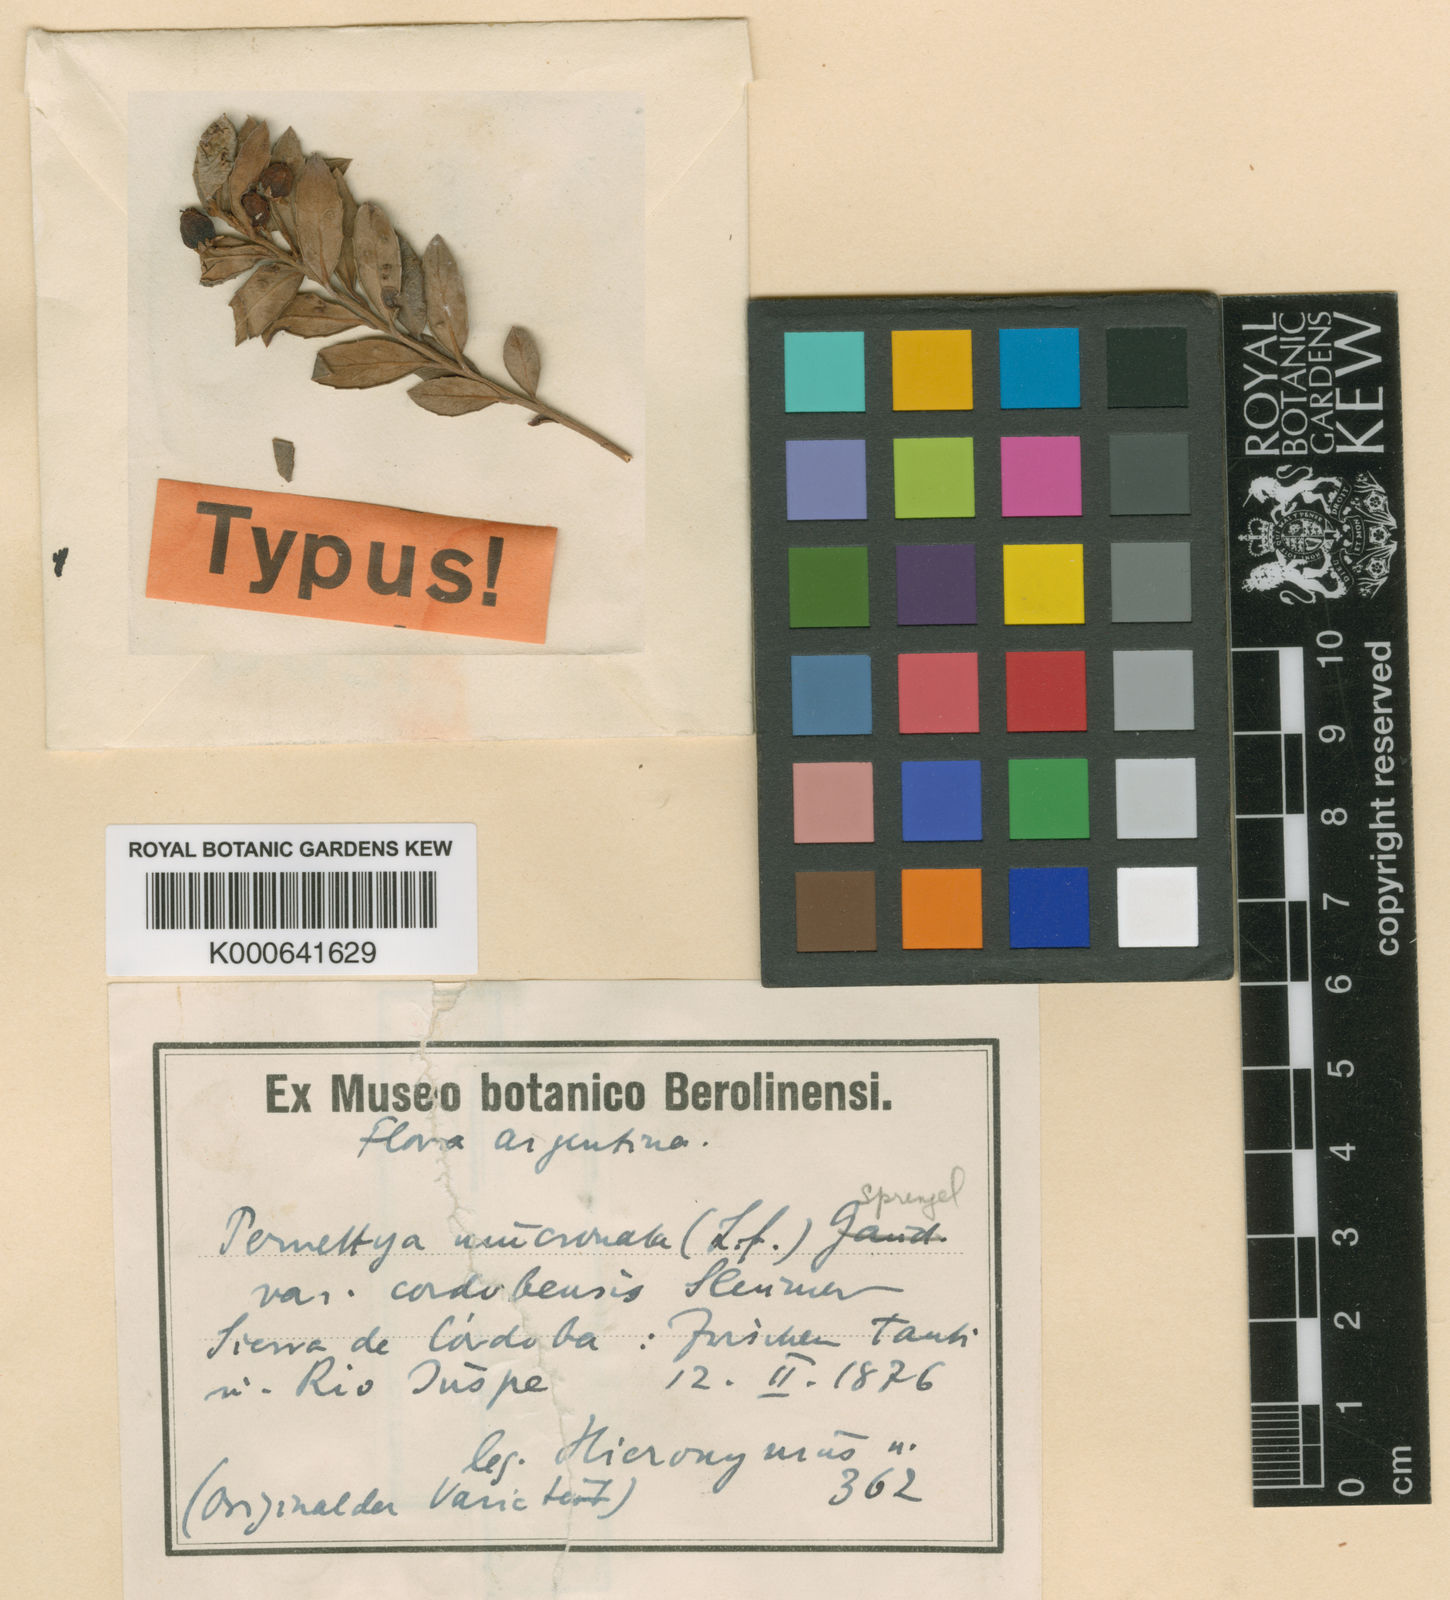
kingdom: Plantae
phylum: Tracheophyta
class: Magnoliopsida
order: Ericales
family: Ericaceae
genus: Gaultheria
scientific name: Gaultheria poeppigii
